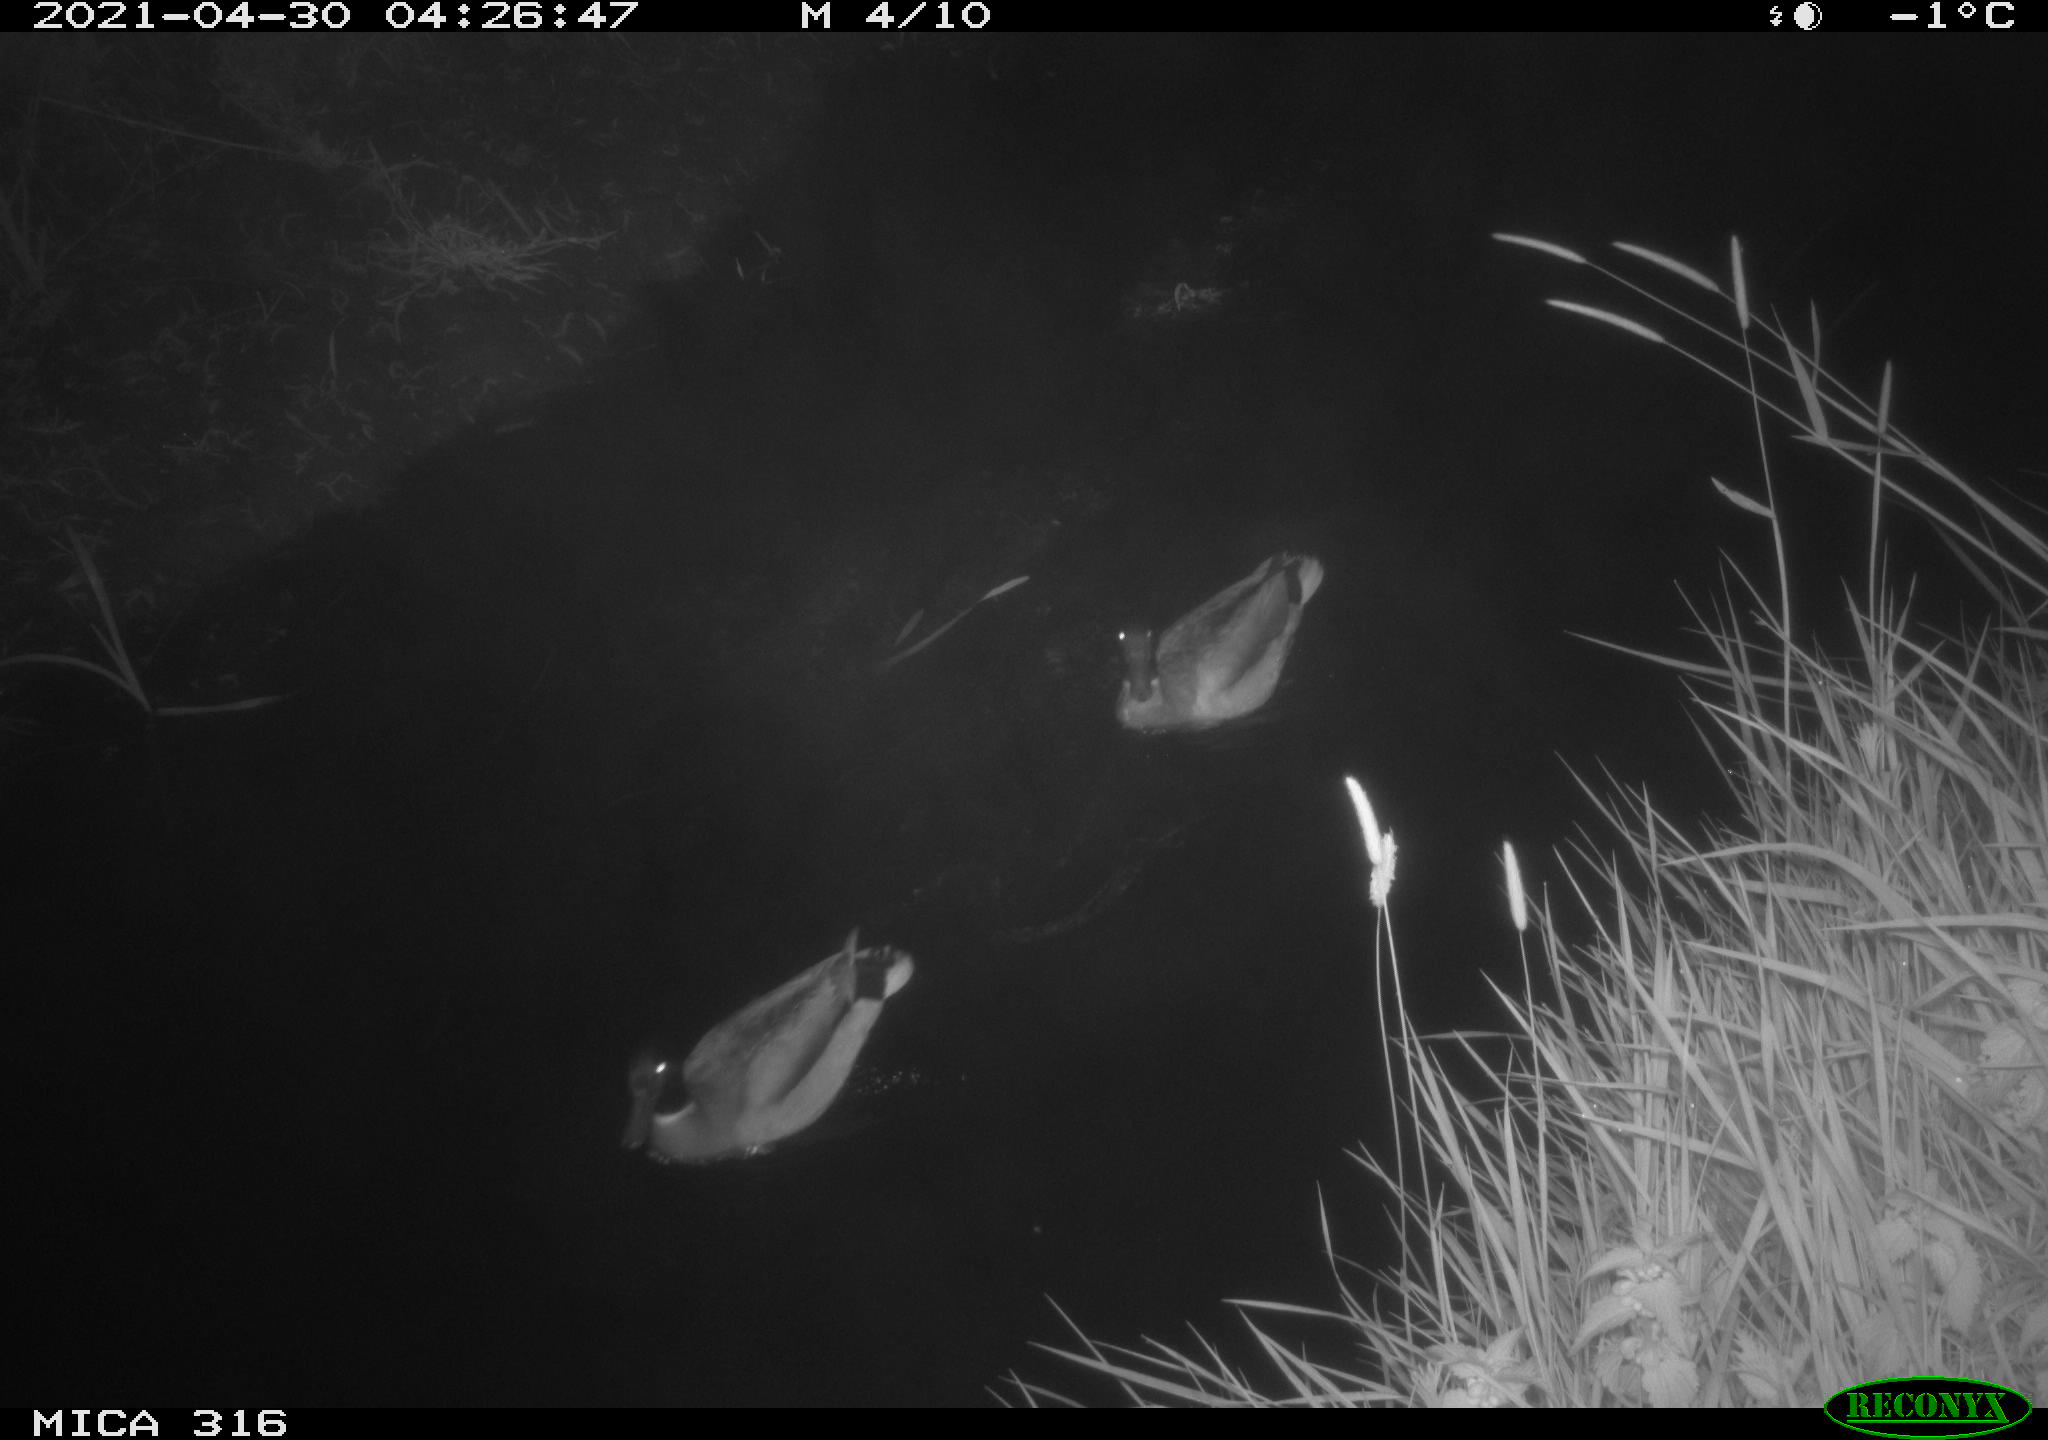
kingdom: Animalia
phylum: Chordata
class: Aves
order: Gruiformes
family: Rallidae
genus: Gallinula
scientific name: Gallinula chloropus
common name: Common moorhen
